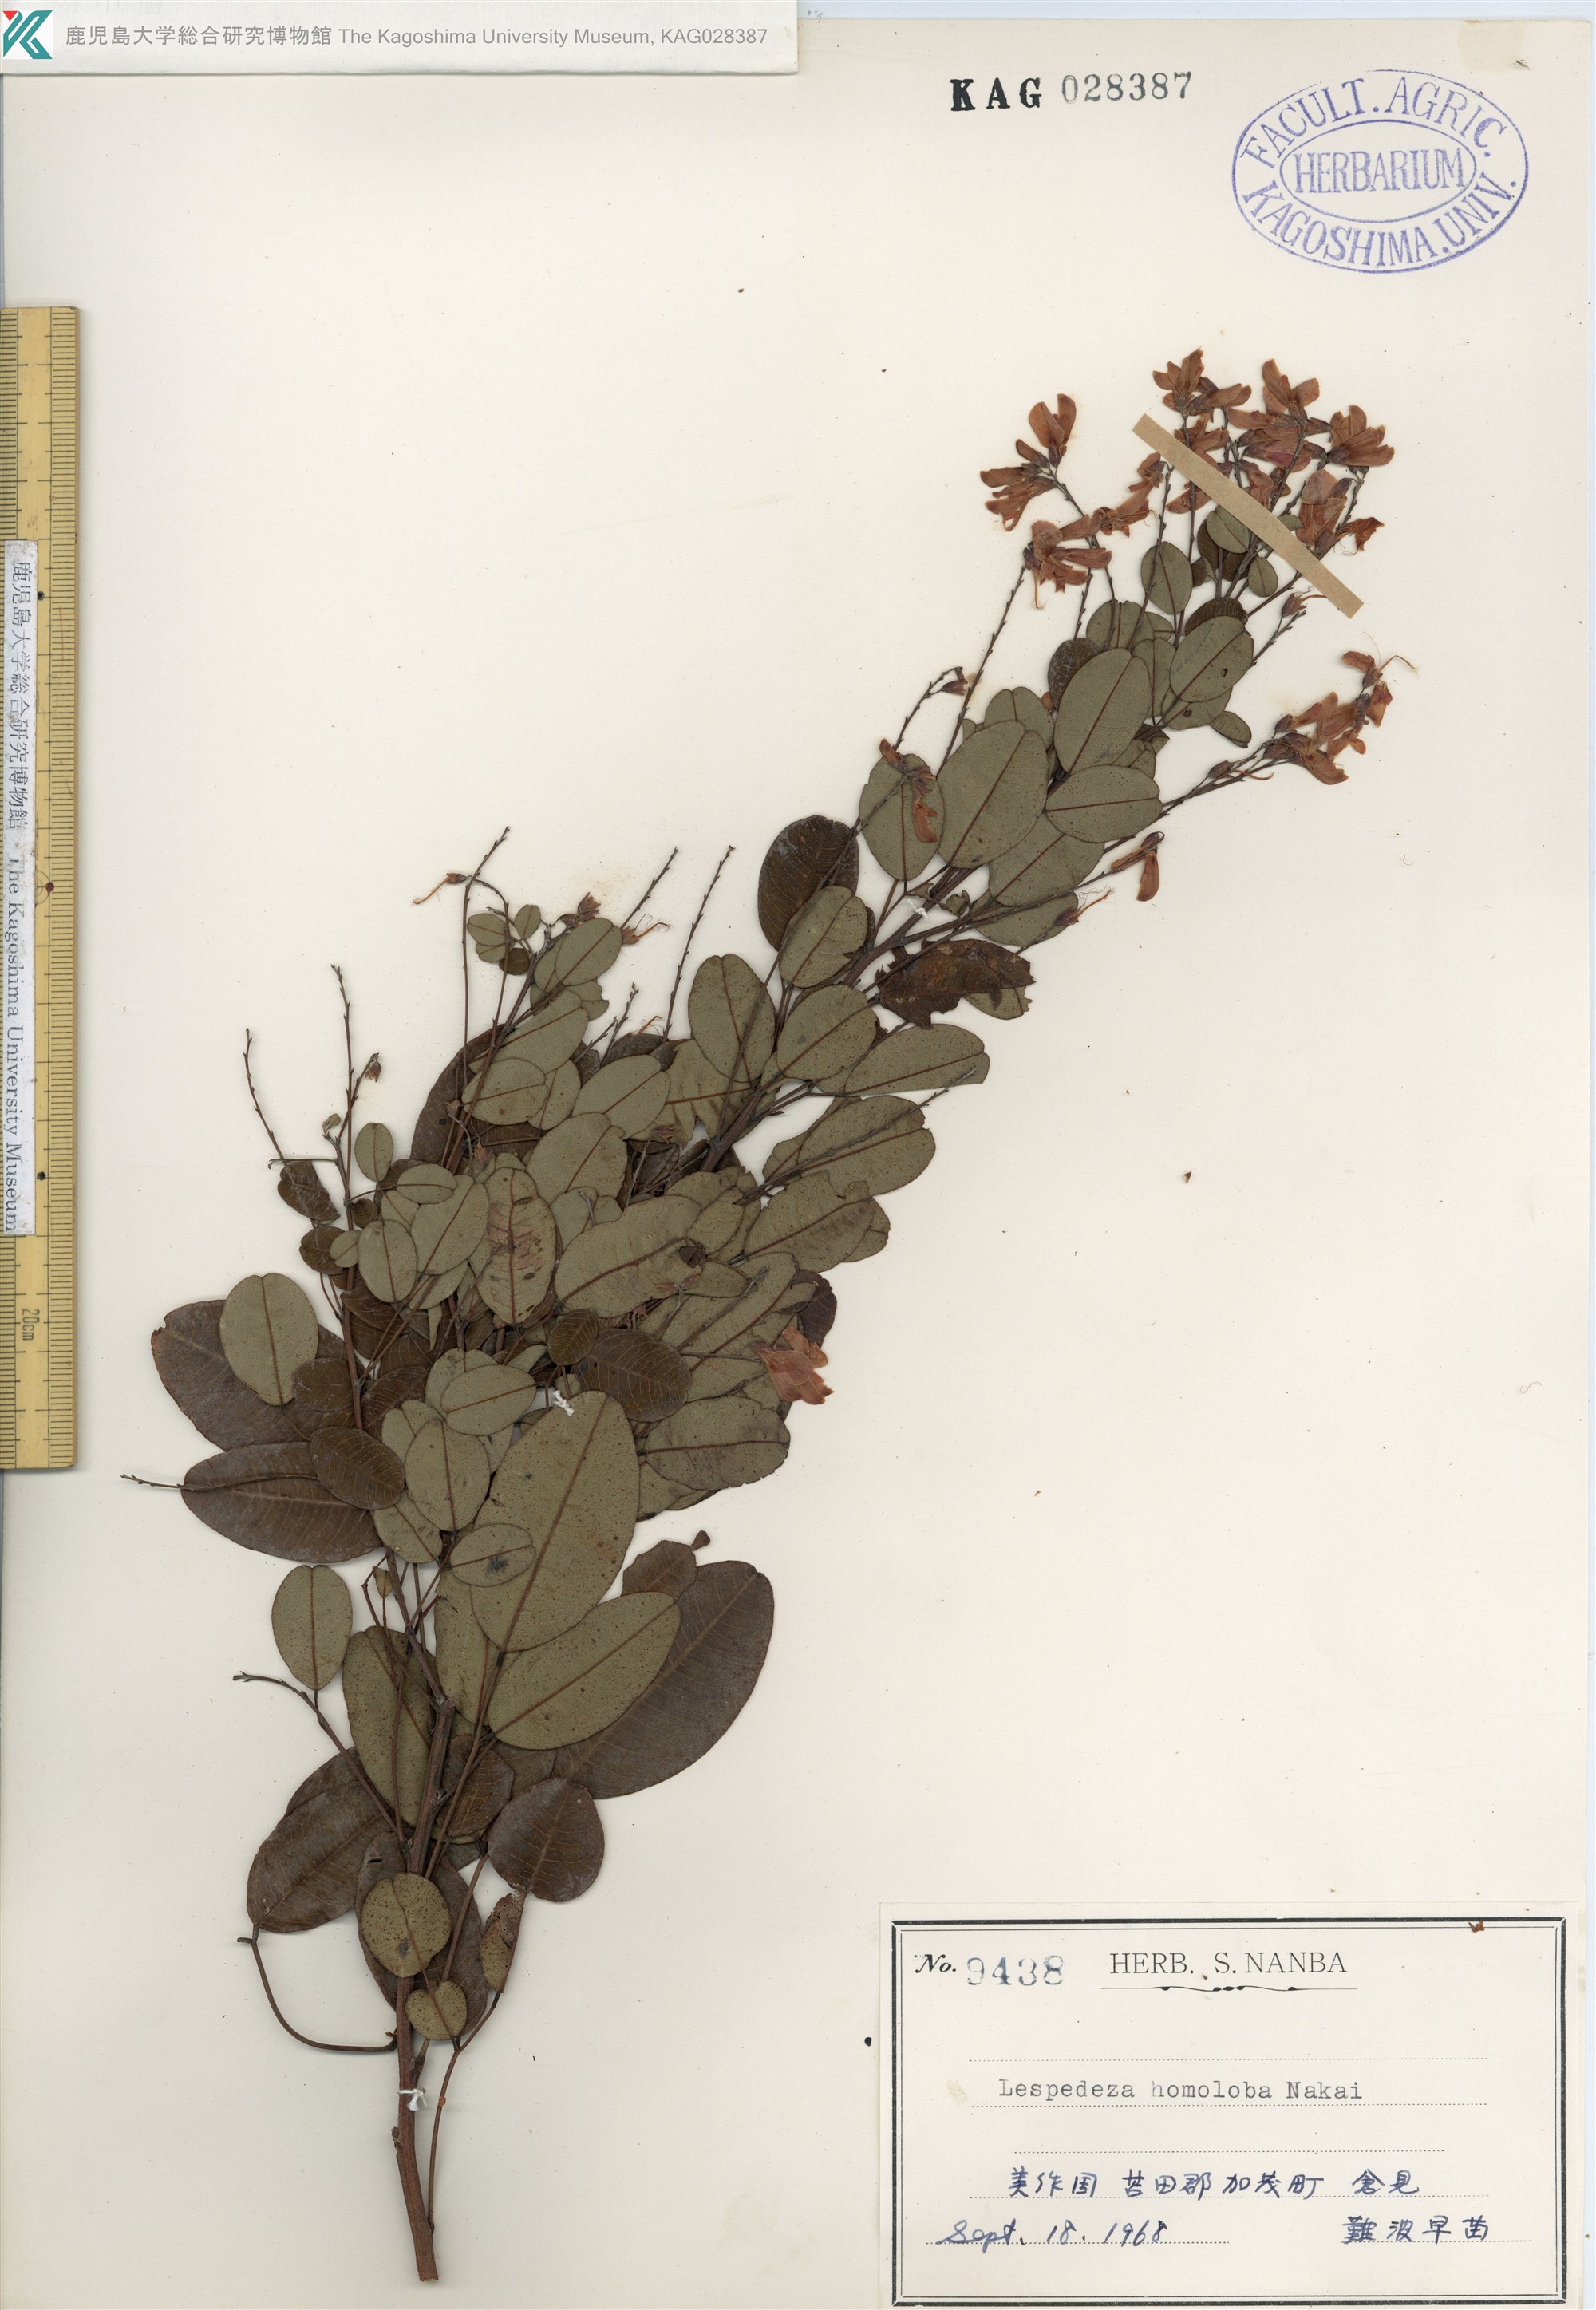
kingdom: Plantae
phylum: Tracheophyta
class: Magnoliopsida
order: Fabales
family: Fabaceae
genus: Lespedeza
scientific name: Lespedeza homoloba
